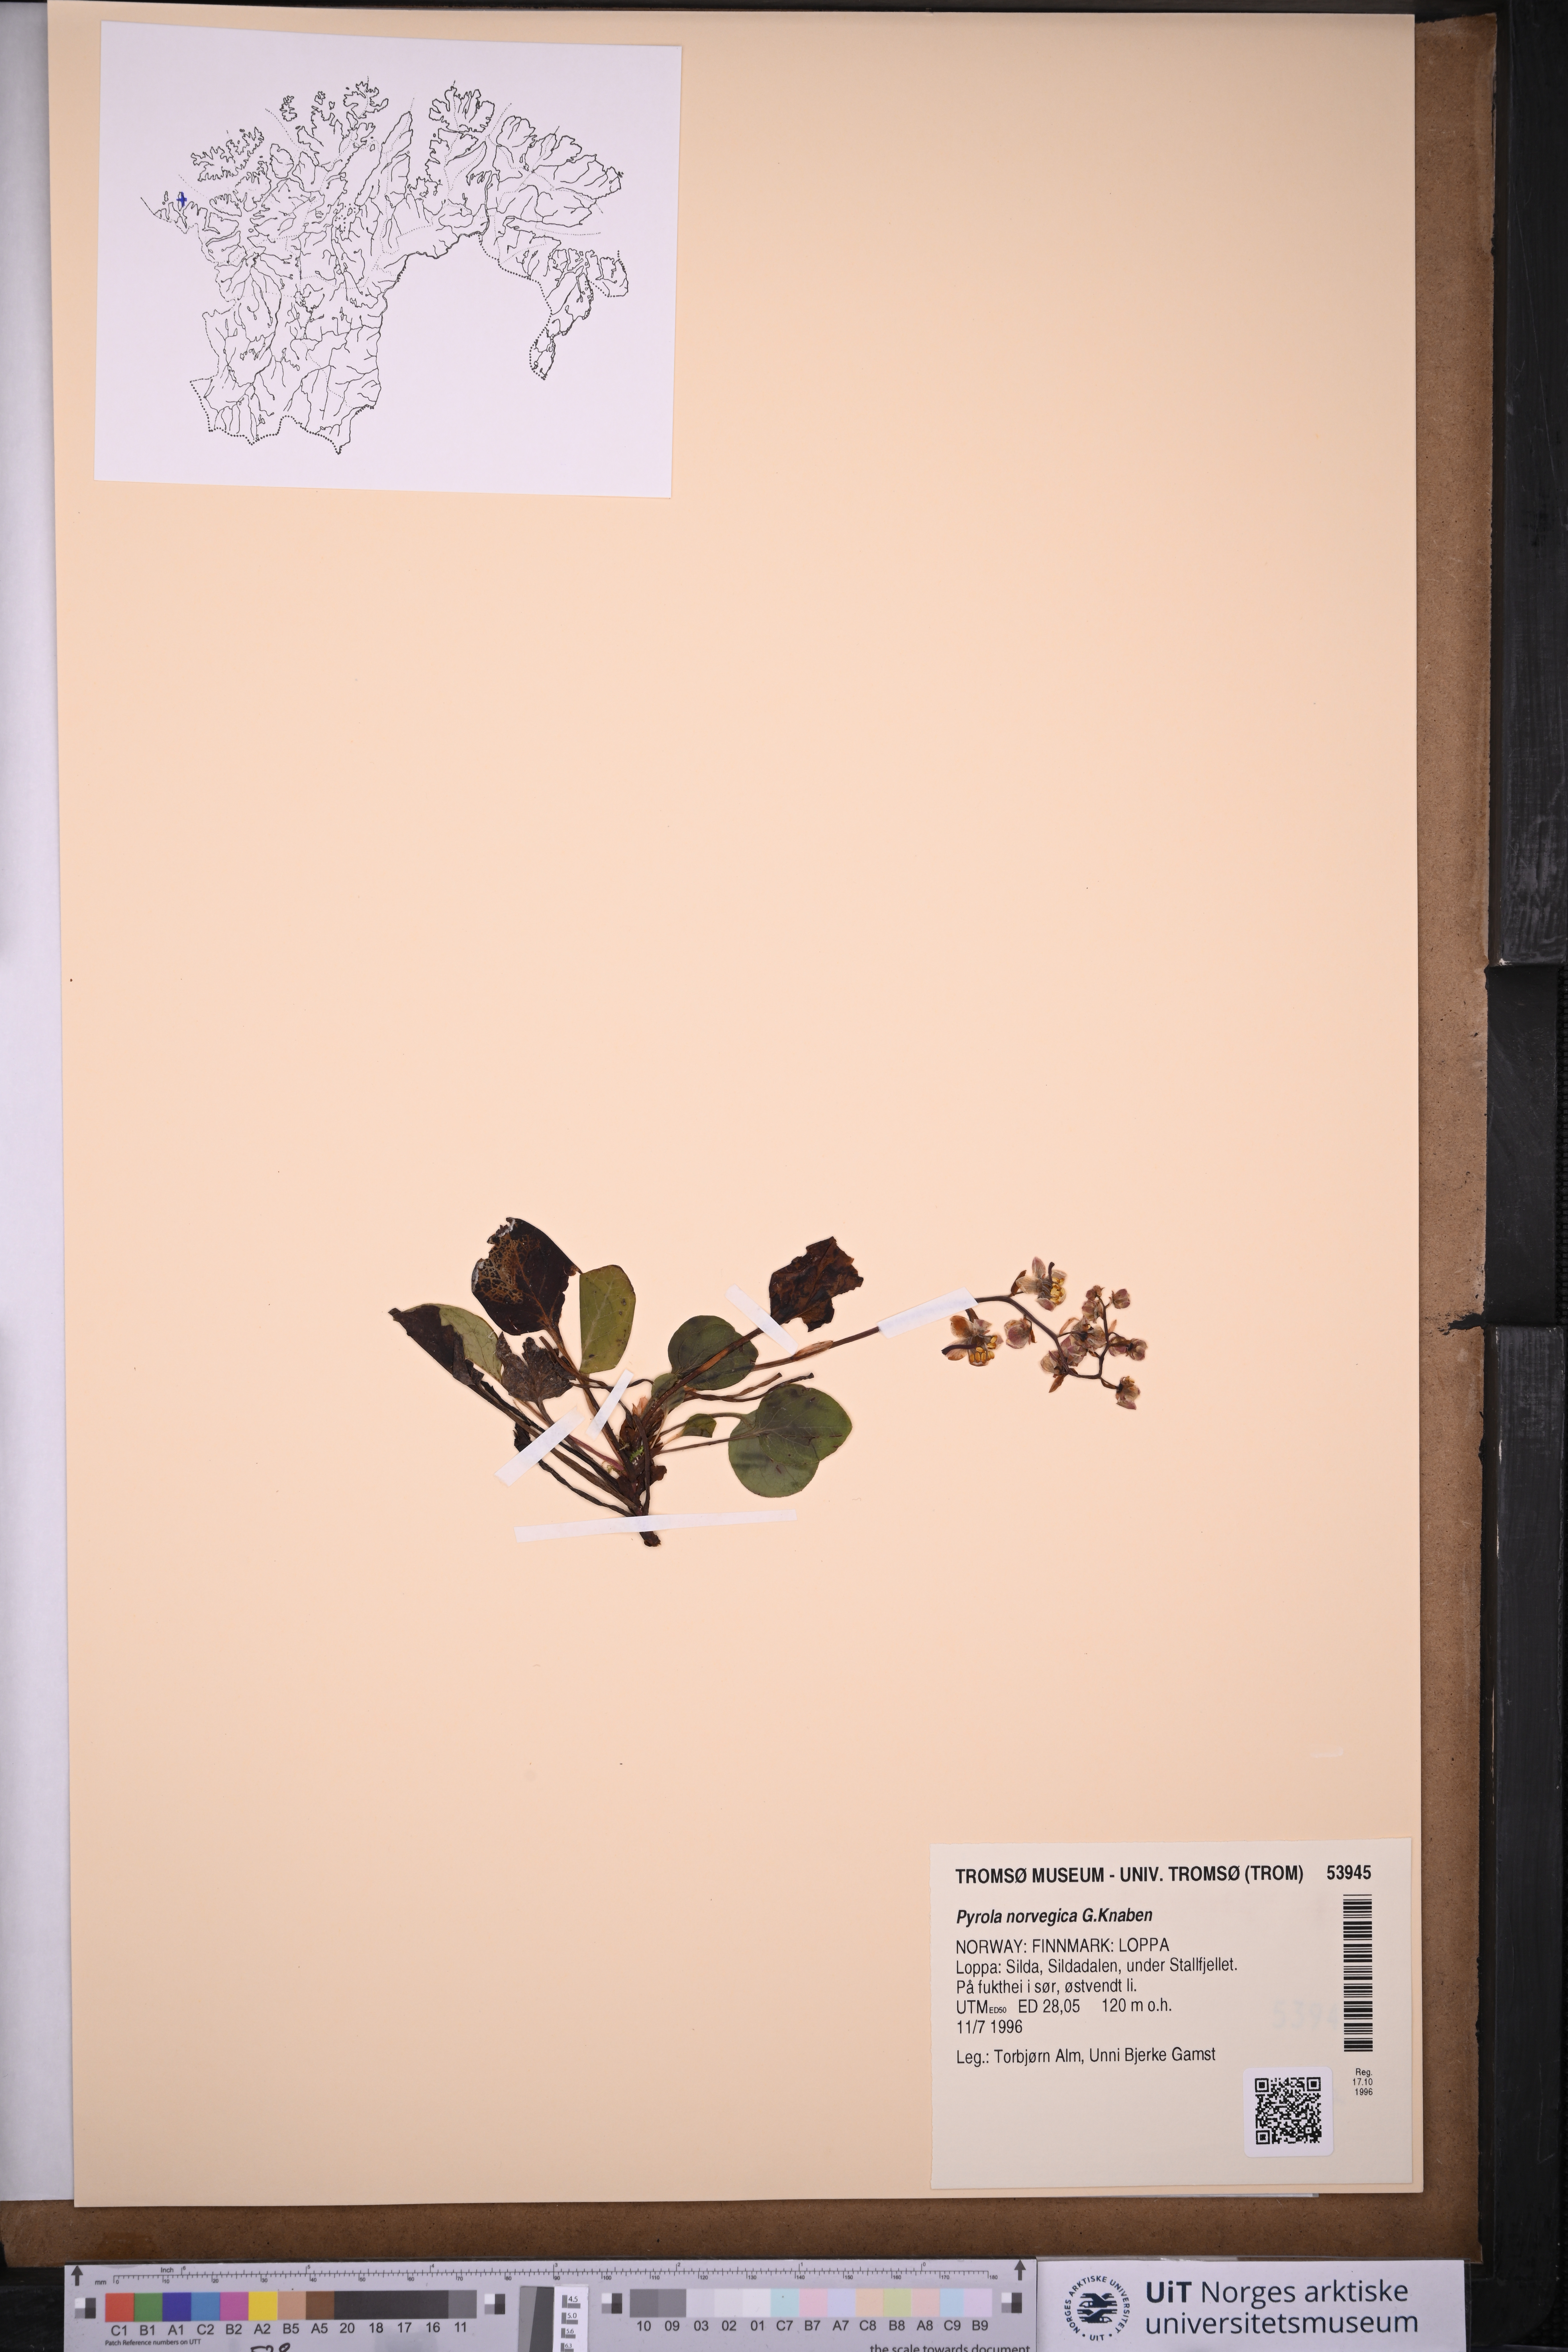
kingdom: Plantae
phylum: Tracheophyta
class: Magnoliopsida
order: Ericales
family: Ericaceae
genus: Pyrola
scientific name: Pyrola rotundifolia
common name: Round-leaved wintergreen
